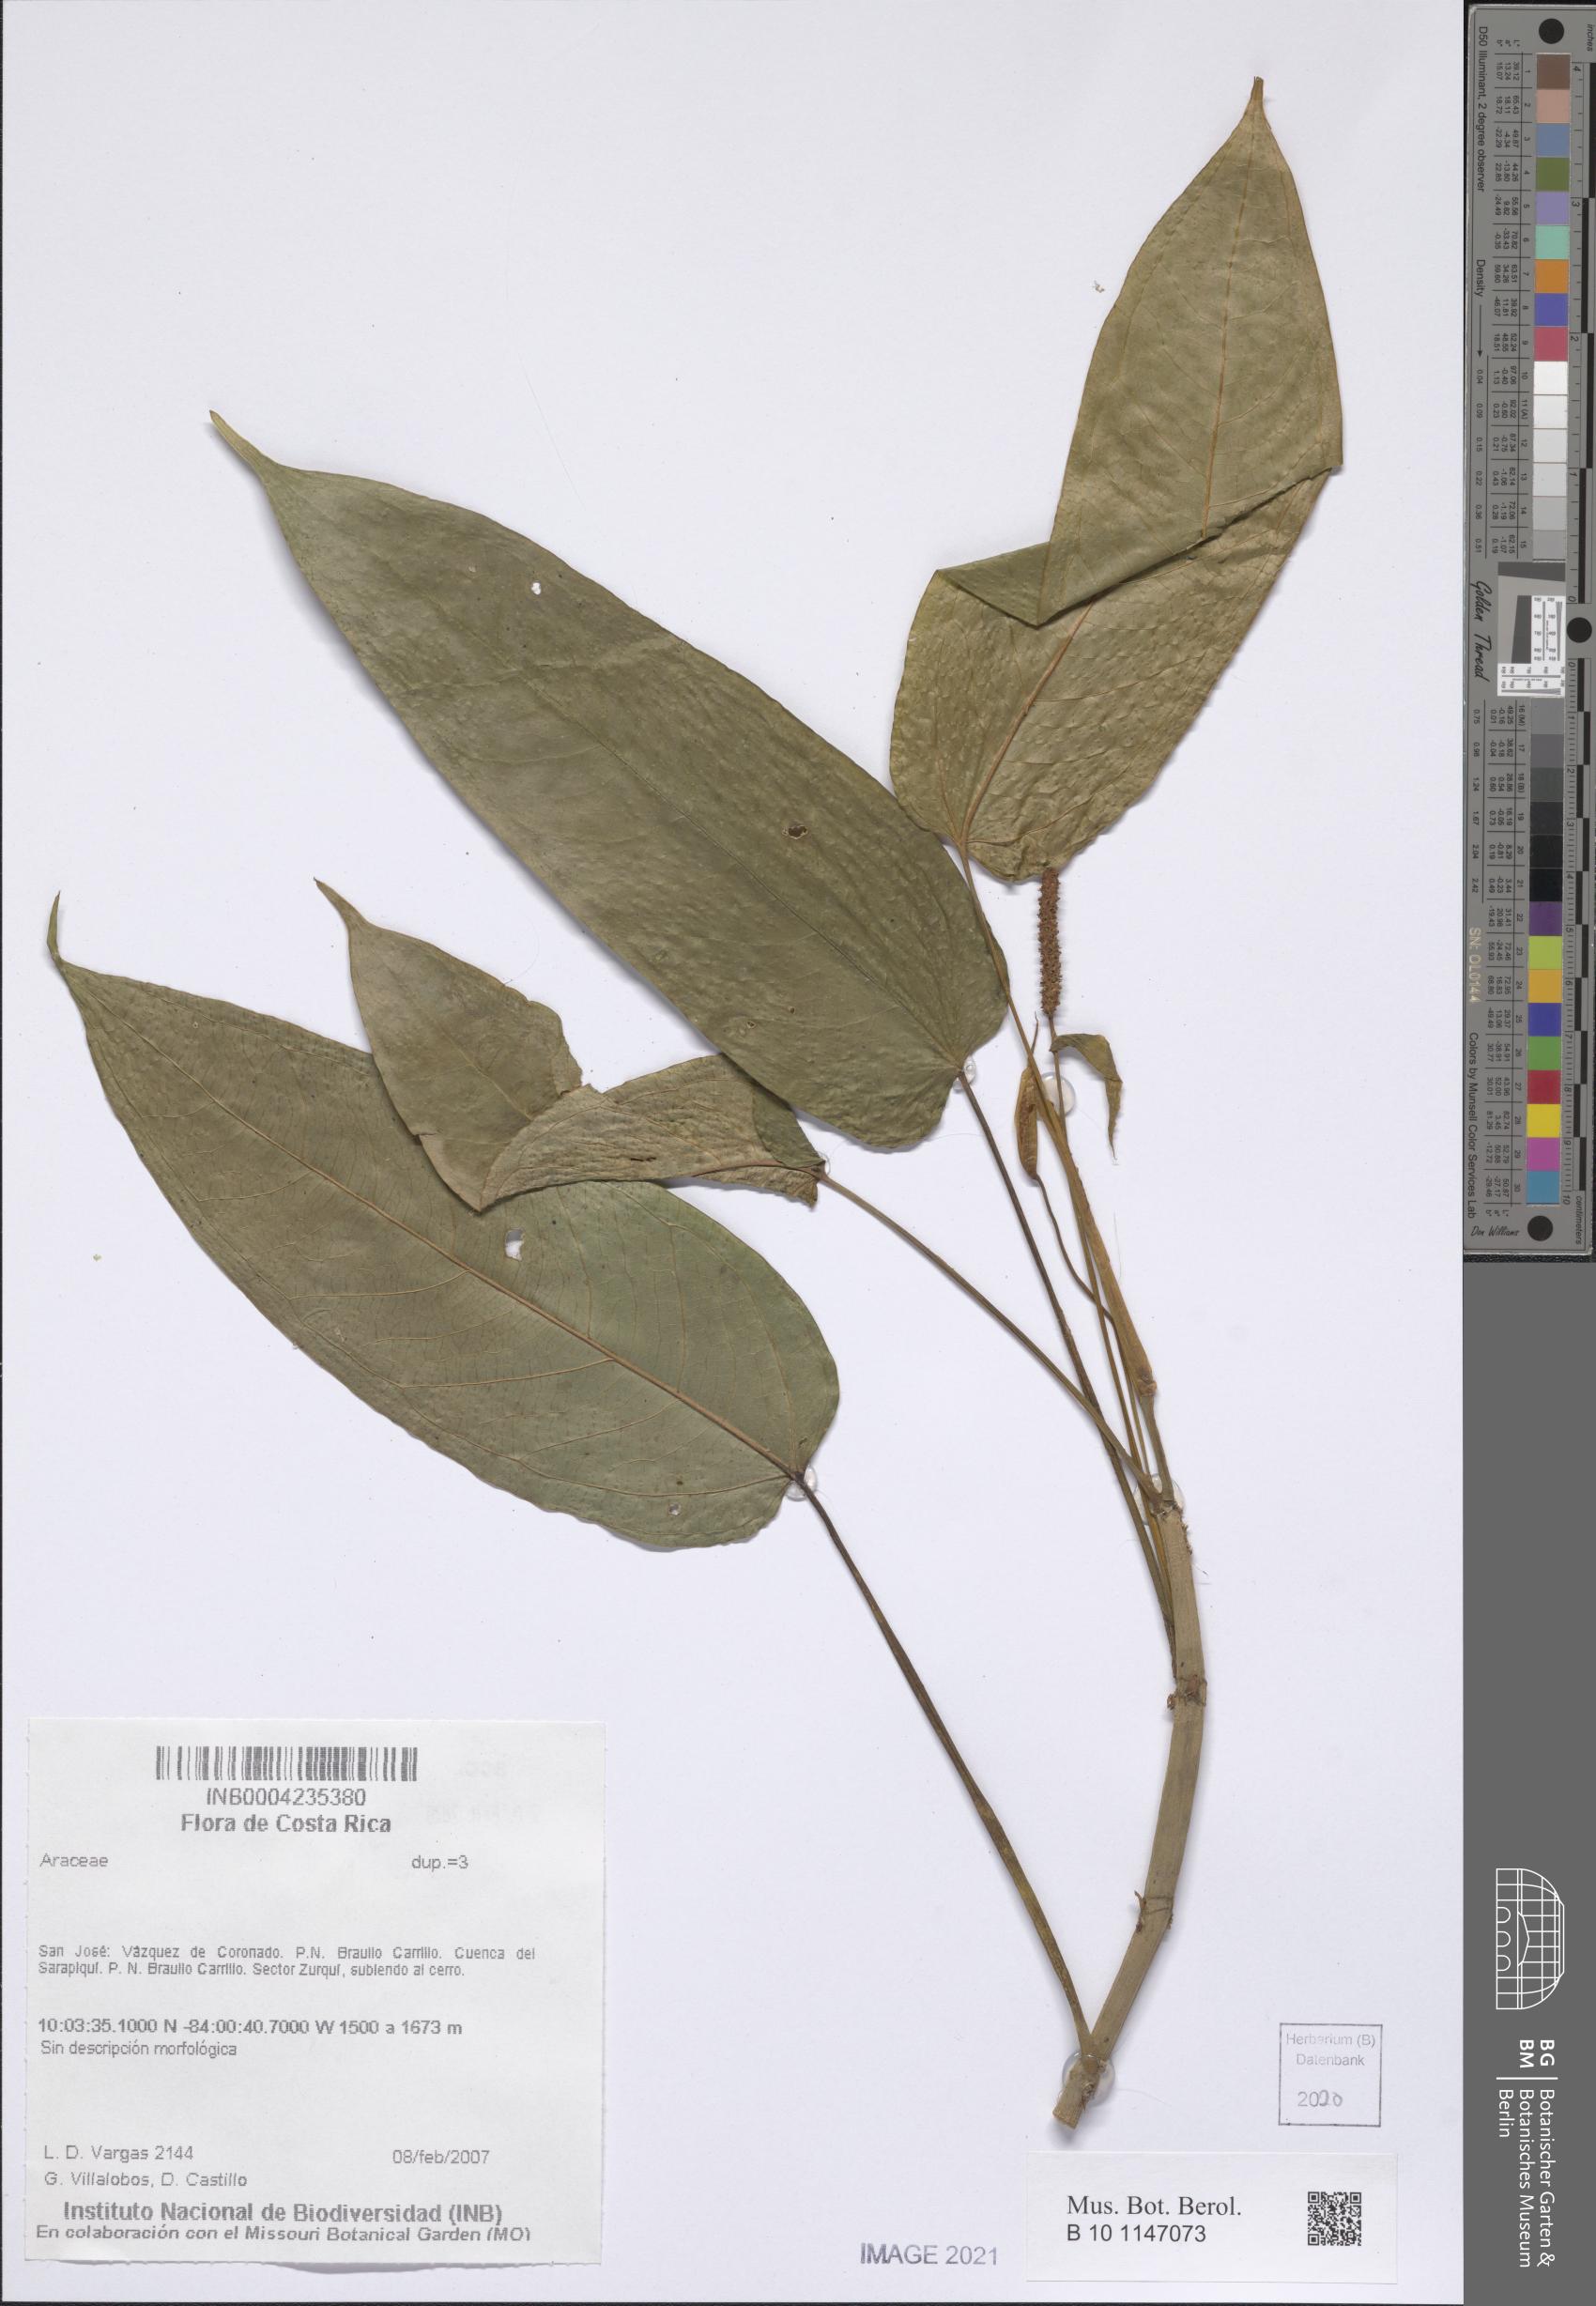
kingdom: Plantae
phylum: Tracheophyta
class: Liliopsida
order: Alismatales
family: Araceae
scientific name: Araceae
